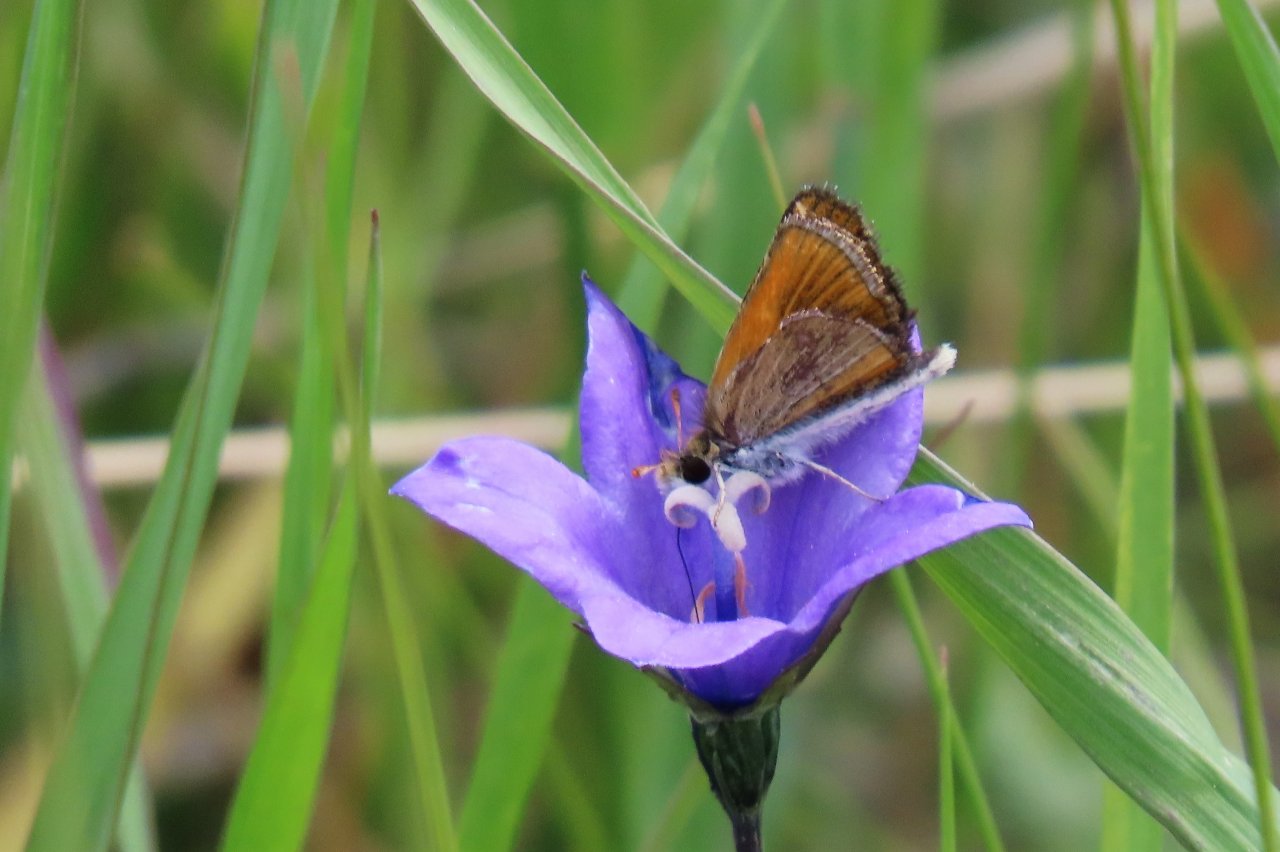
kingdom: Animalia
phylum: Arthropoda
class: Insecta
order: Lepidoptera
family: Hesperiidae
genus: Oarisma
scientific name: Oarisma garita
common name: Garita Skipperling
